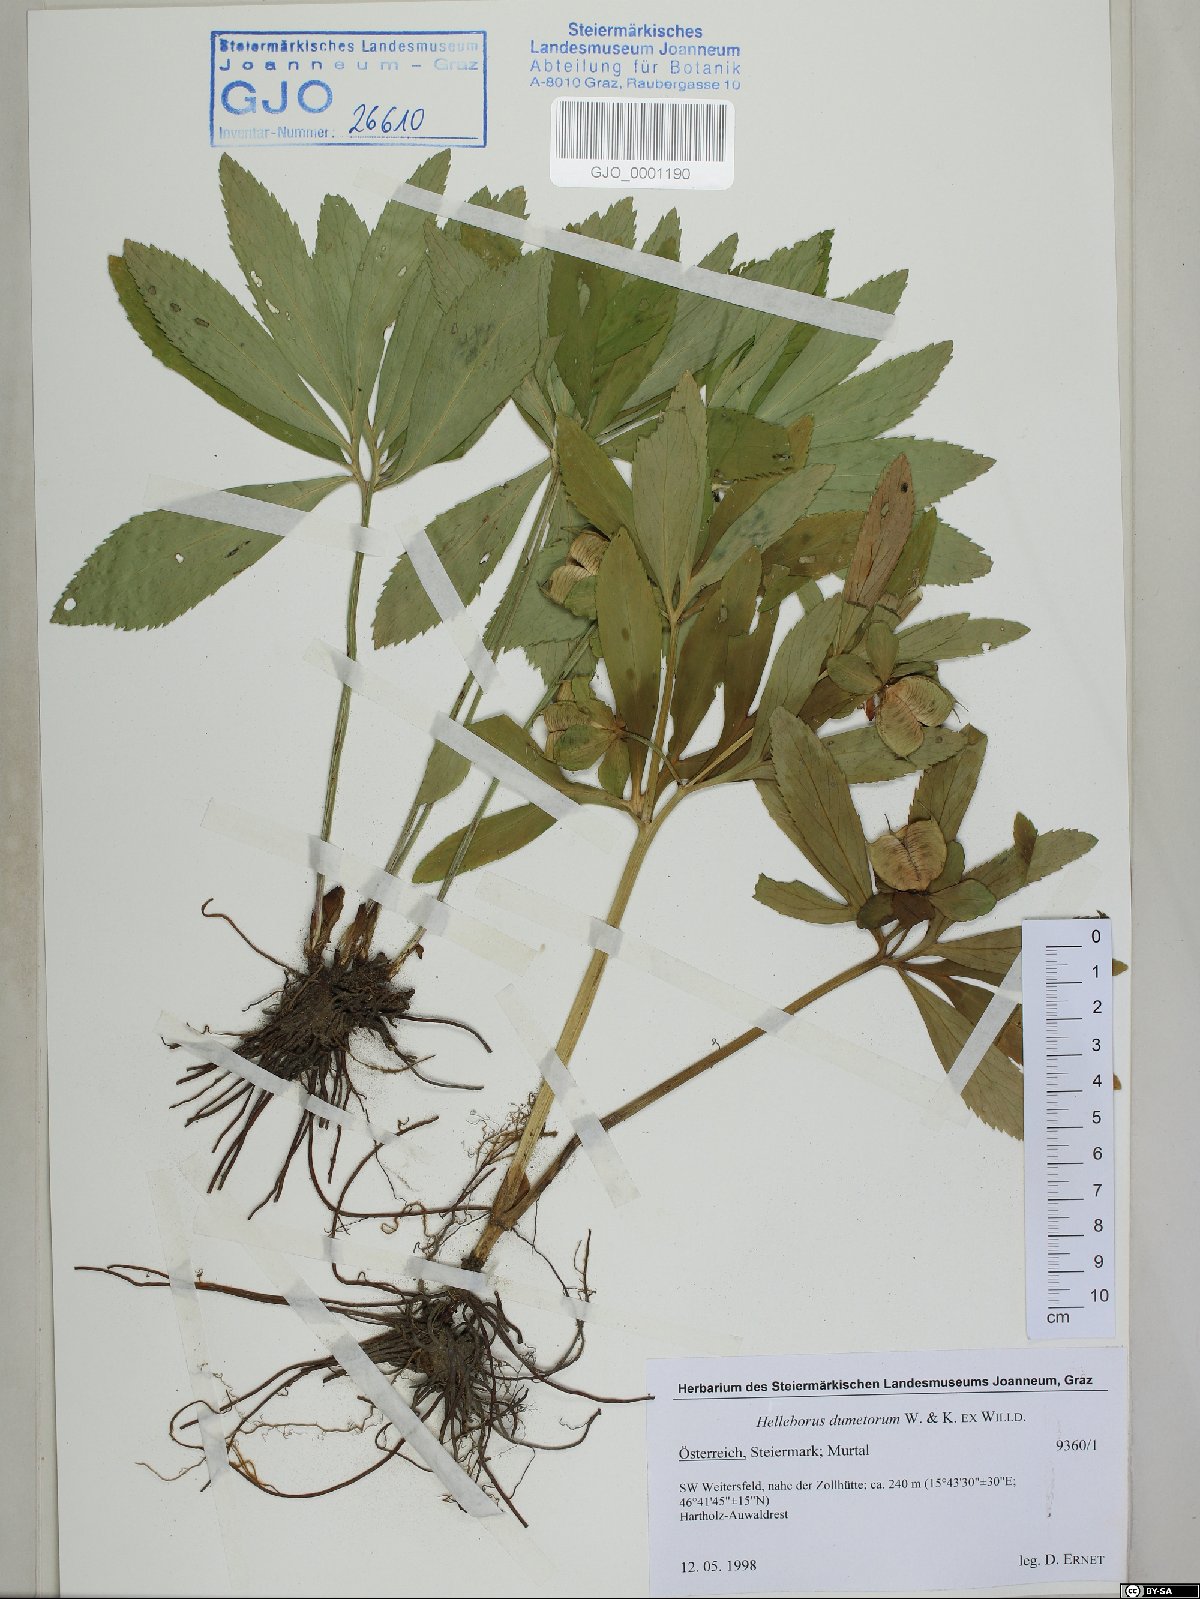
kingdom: Plantae
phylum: Tracheophyta
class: Magnoliopsida
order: Ranunculales
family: Ranunculaceae
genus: Helleborus
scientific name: Helleborus dumetorum
